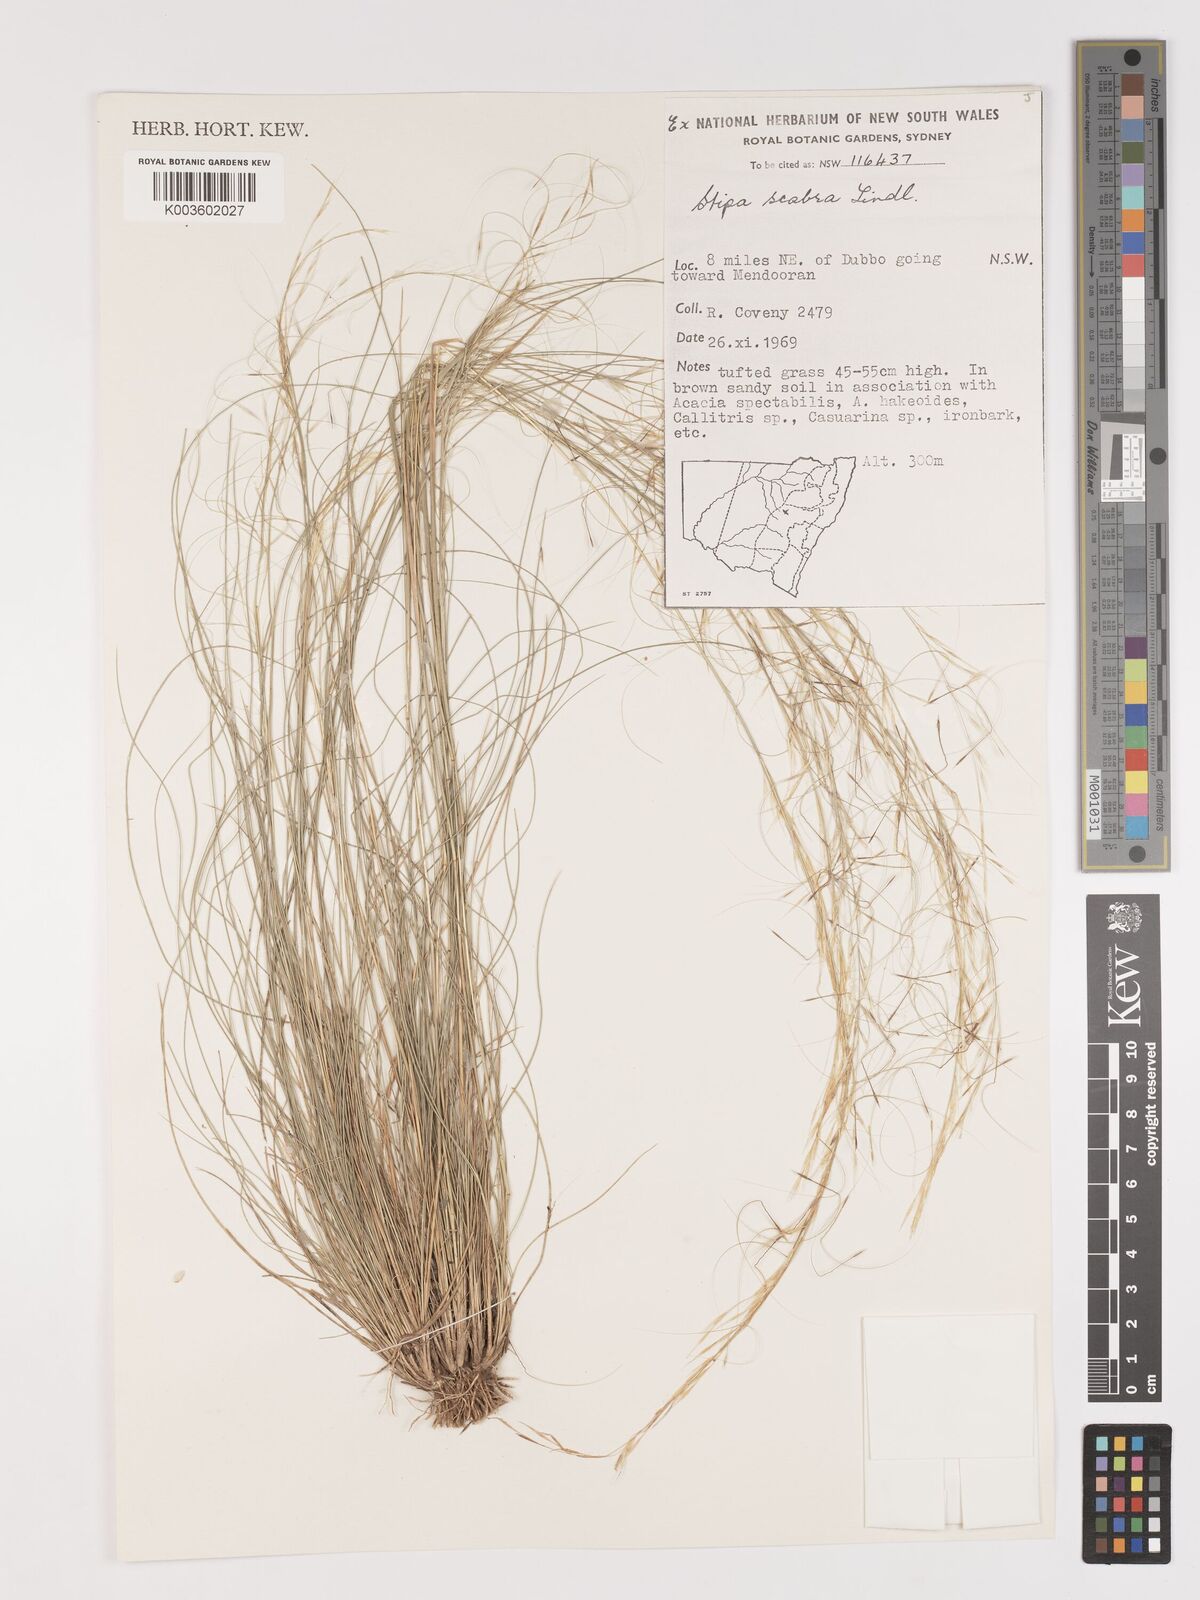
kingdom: Plantae
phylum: Tracheophyta
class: Liliopsida
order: Poales
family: Poaceae
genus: Austrostipa
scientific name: Austrostipa scabra
